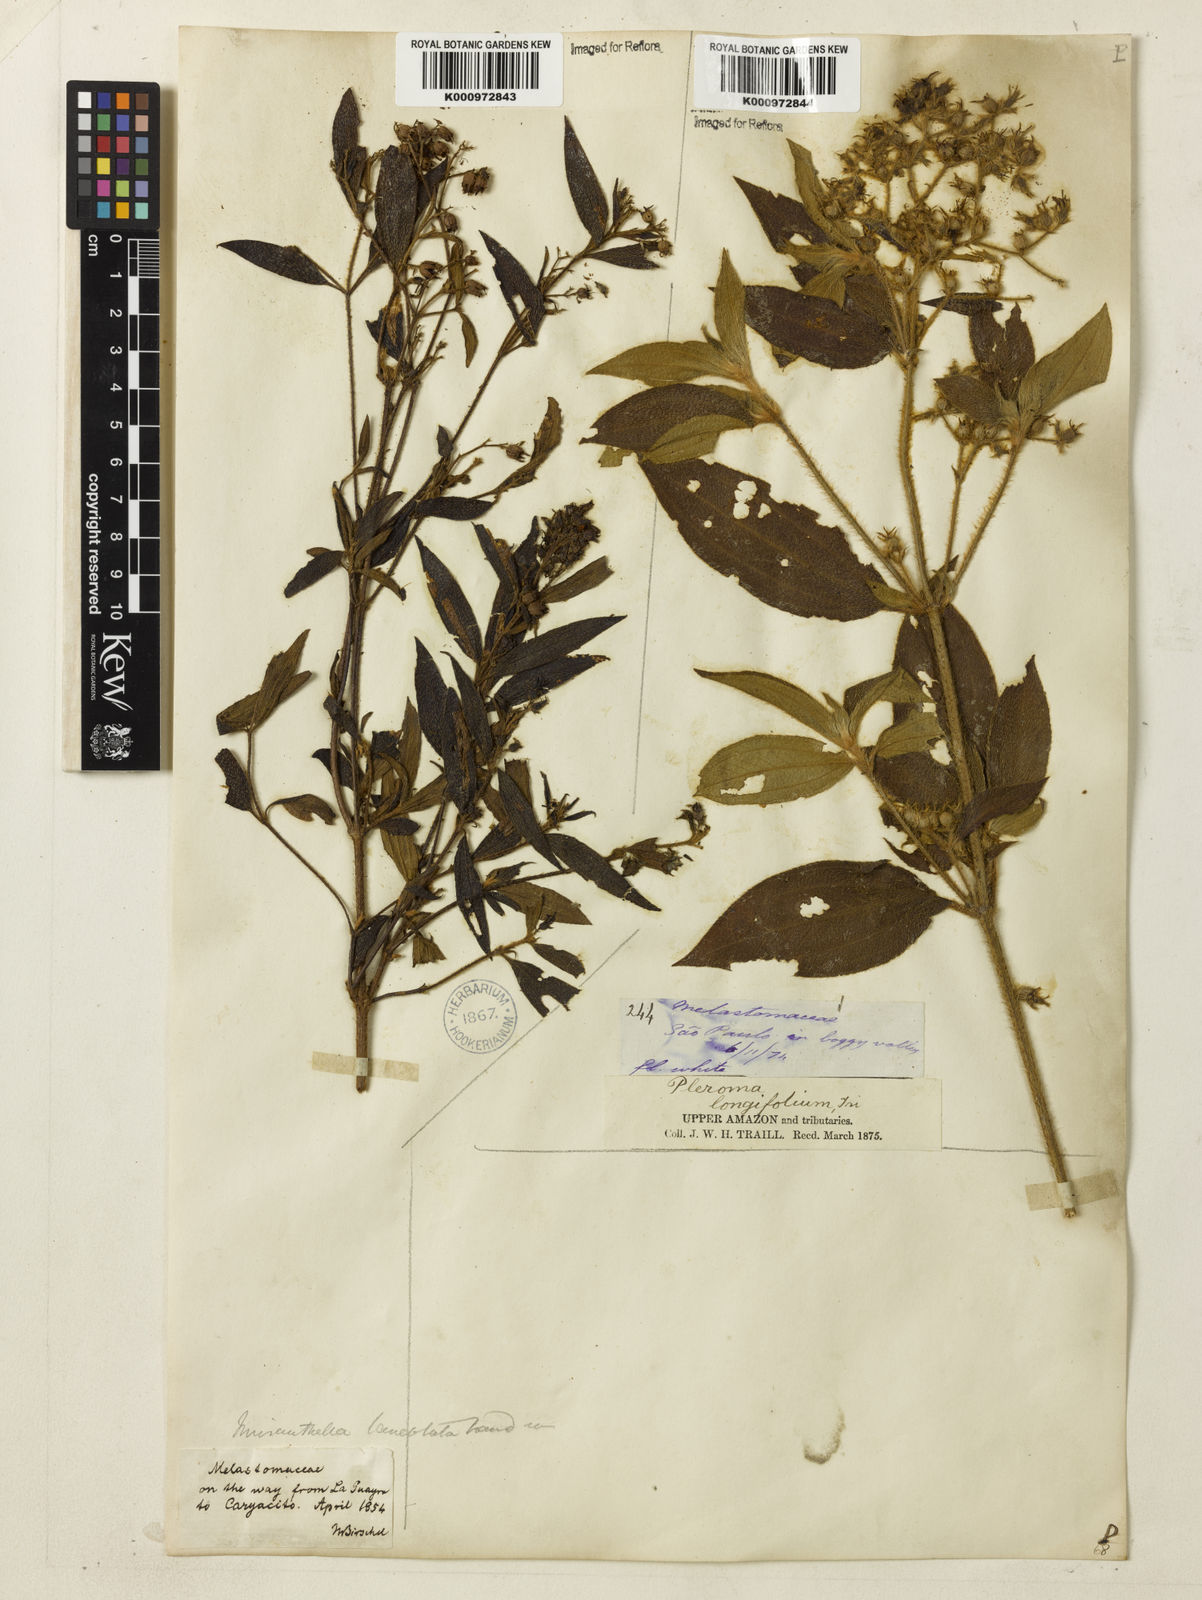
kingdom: Plantae
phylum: Tracheophyta
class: Magnoliopsida
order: Myrtales
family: Melastomataceae
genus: Chaetogastra
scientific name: Chaetogastra longifolia
